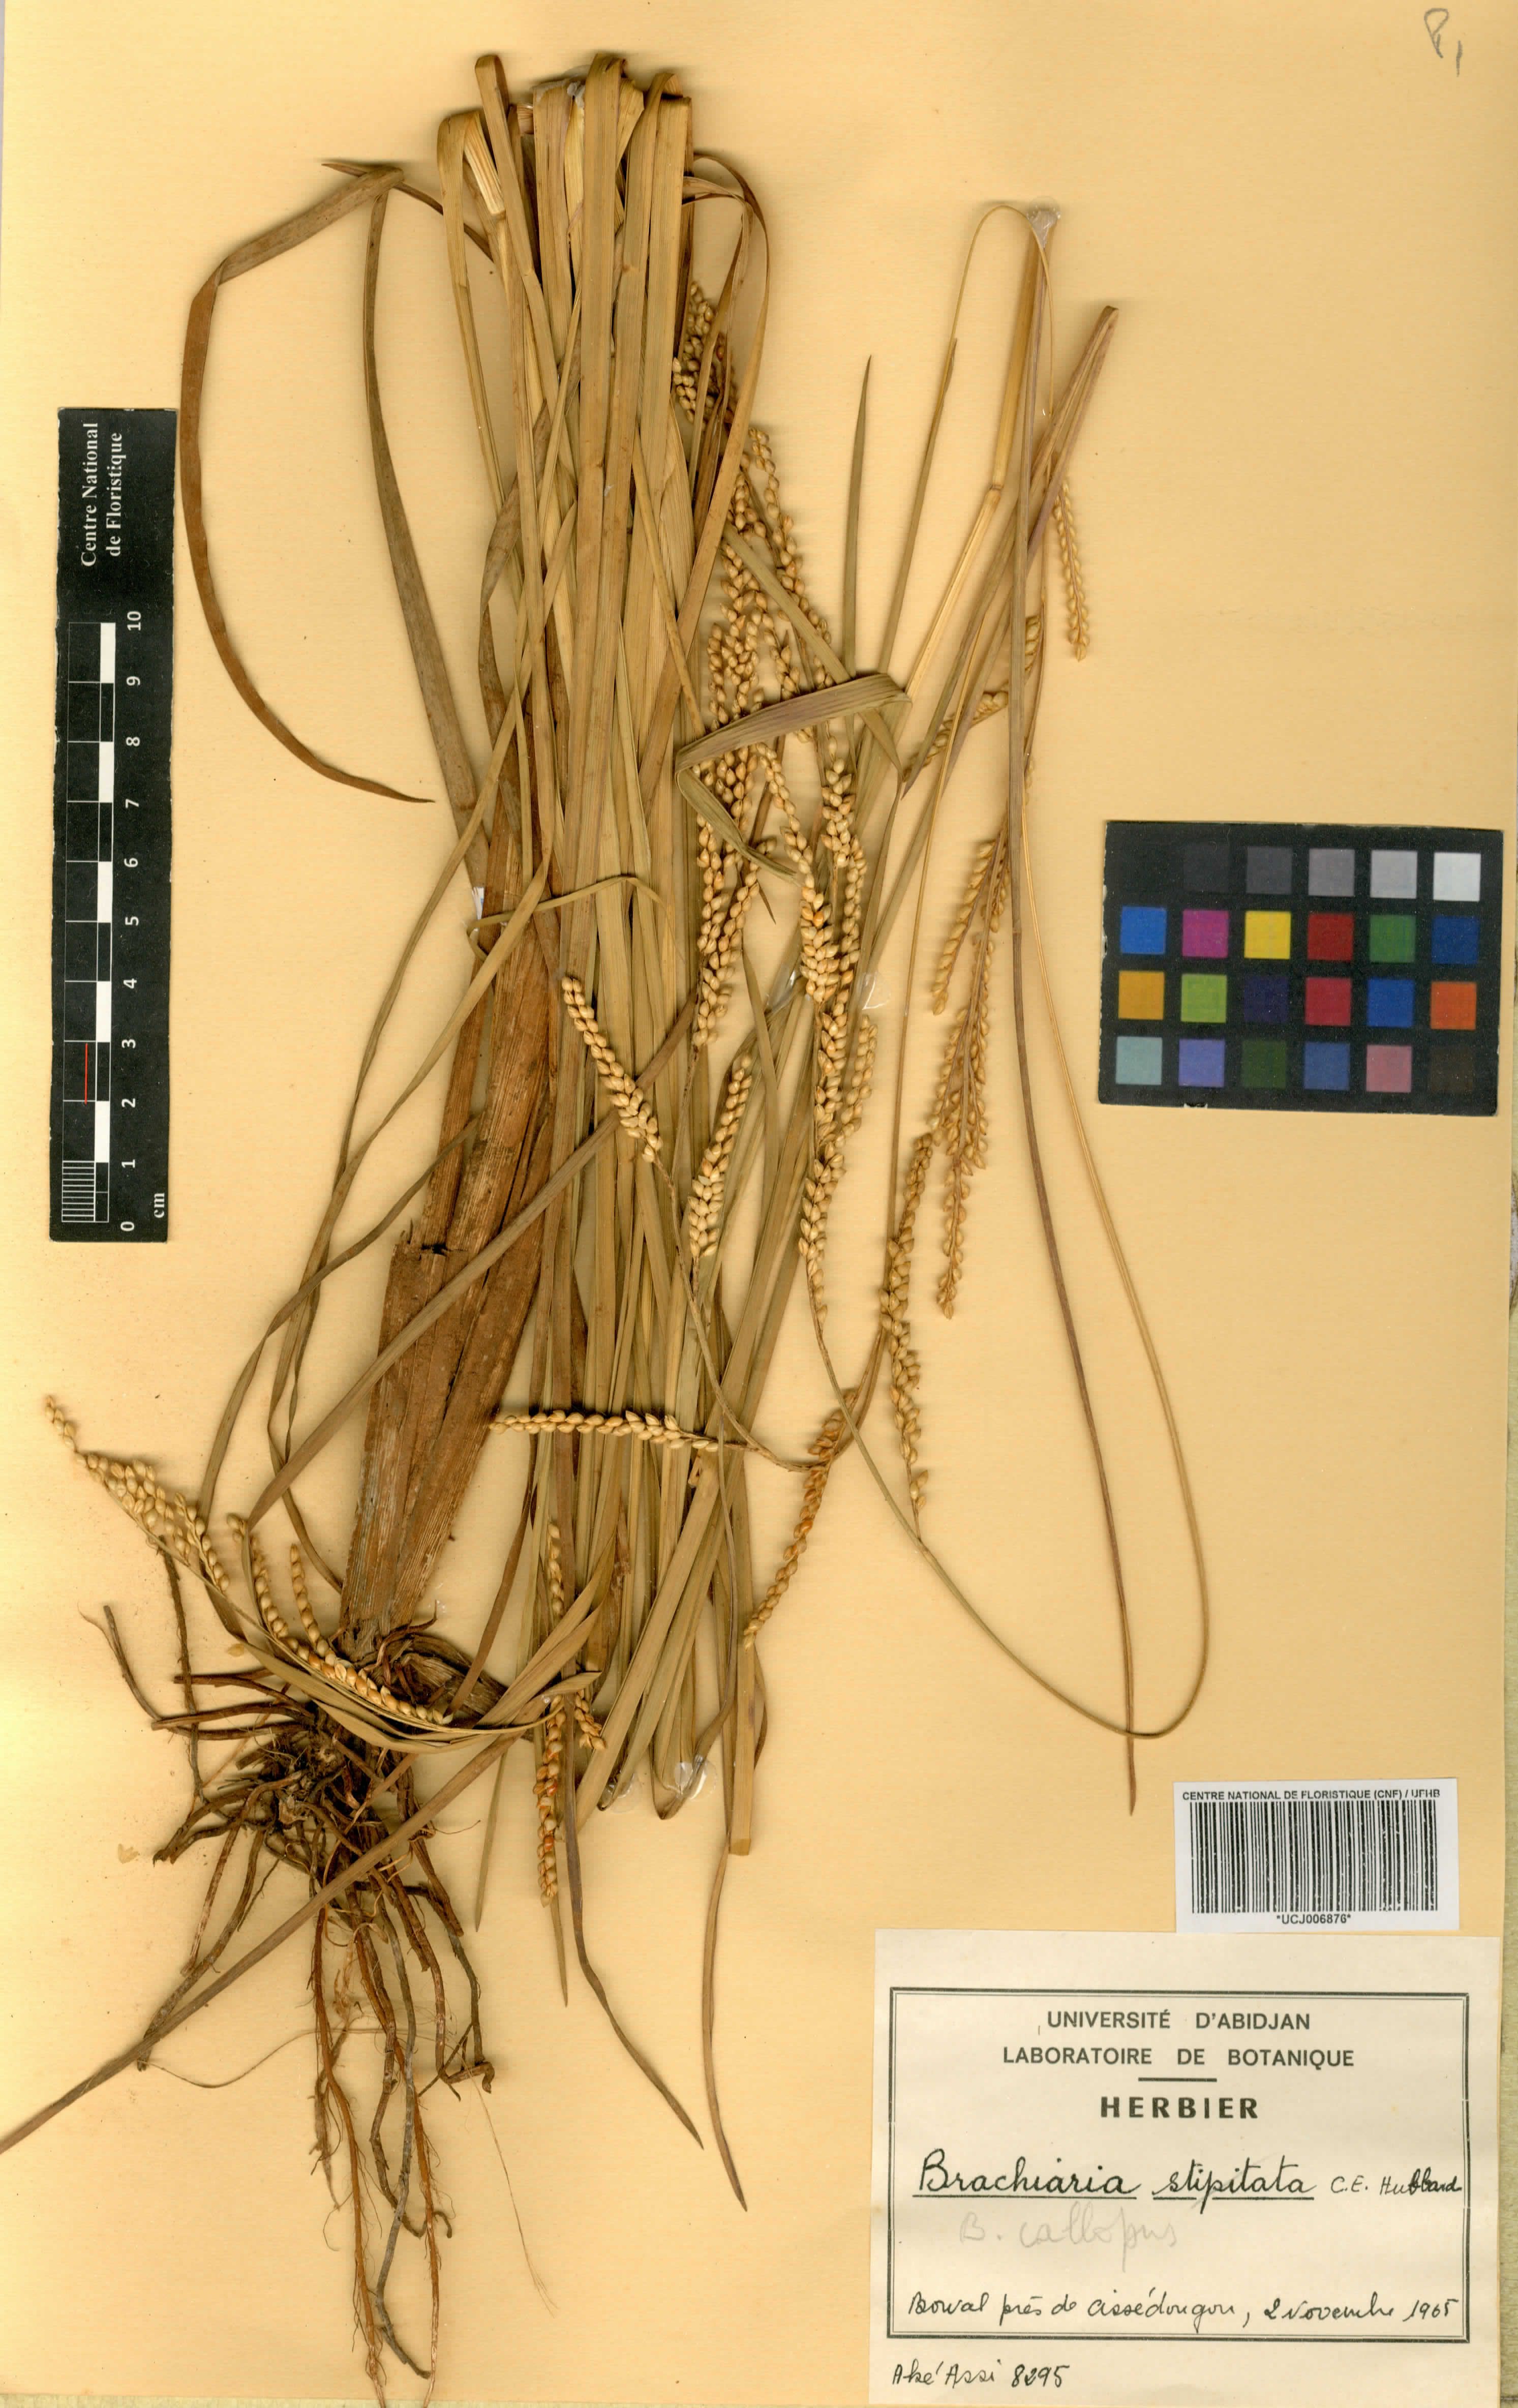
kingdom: Plantae
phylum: Tracheophyta
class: Liliopsida
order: Poales
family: Poaceae
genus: Echinochloa
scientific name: Echinochloa callopus
